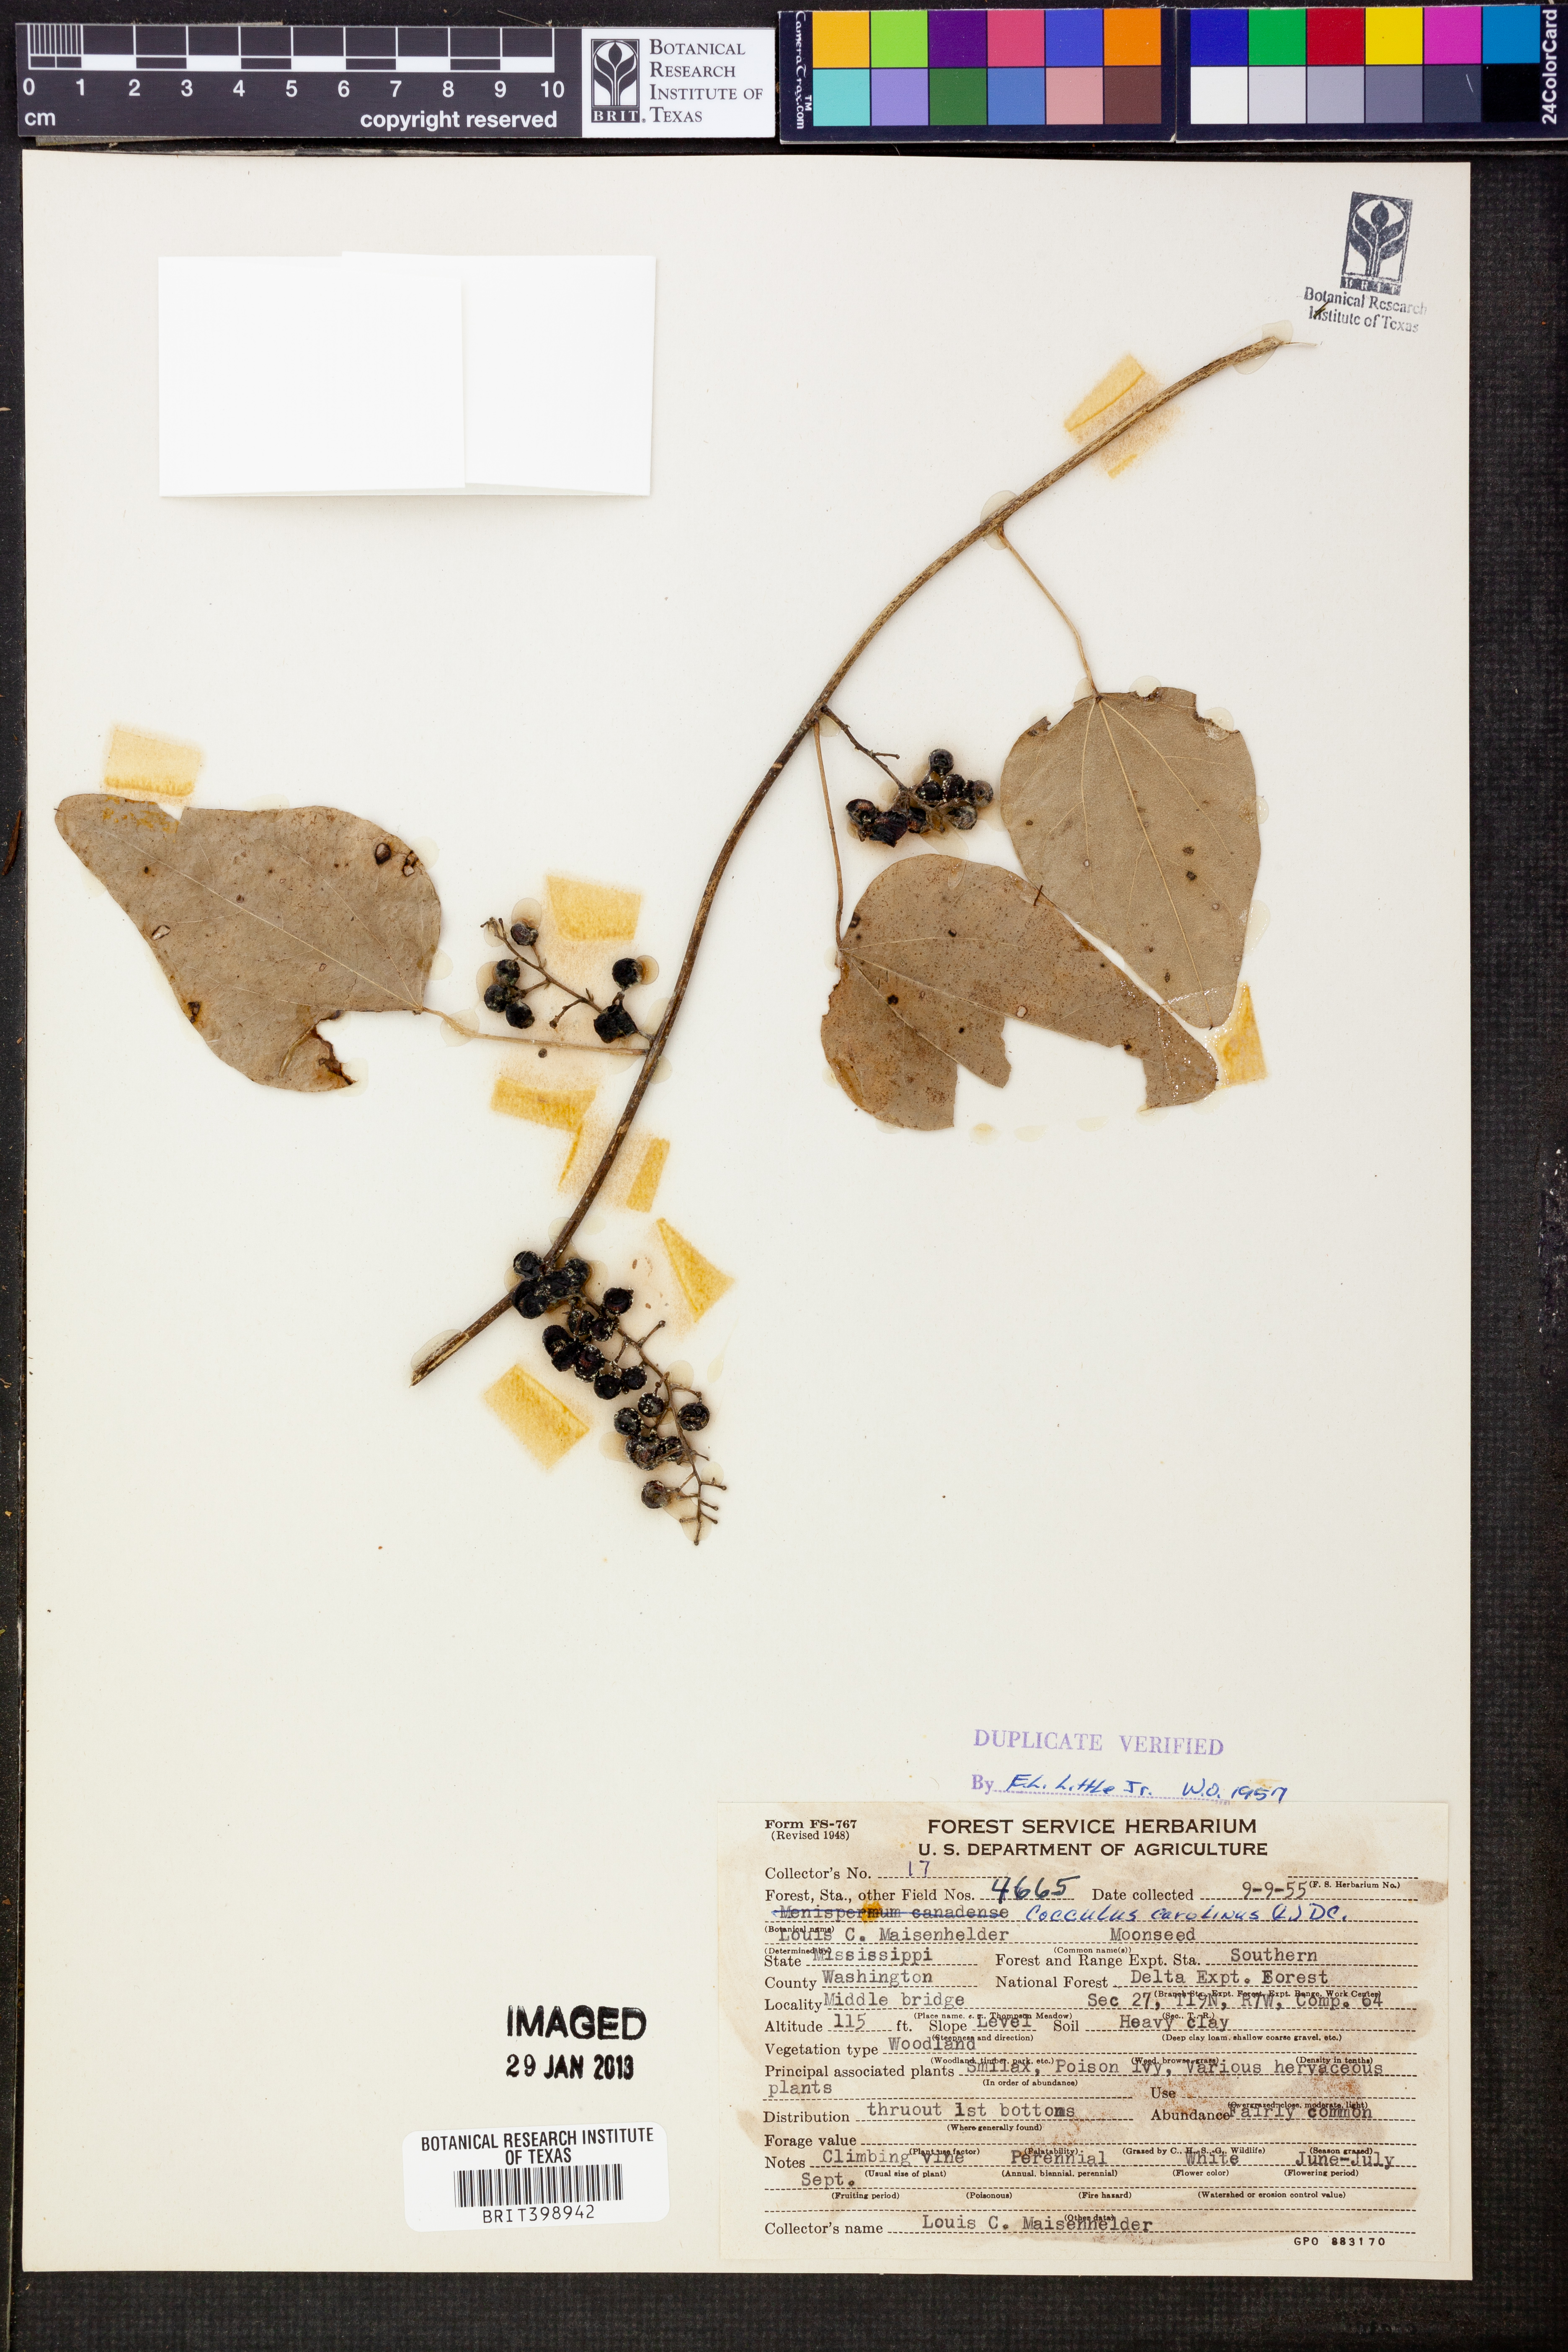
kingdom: Plantae
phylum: Tracheophyta
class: Magnoliopsida
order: Ranunculales
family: Menispermaceae
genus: Cocculus
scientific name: Cocculus carolinus
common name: Carolina moonseed
